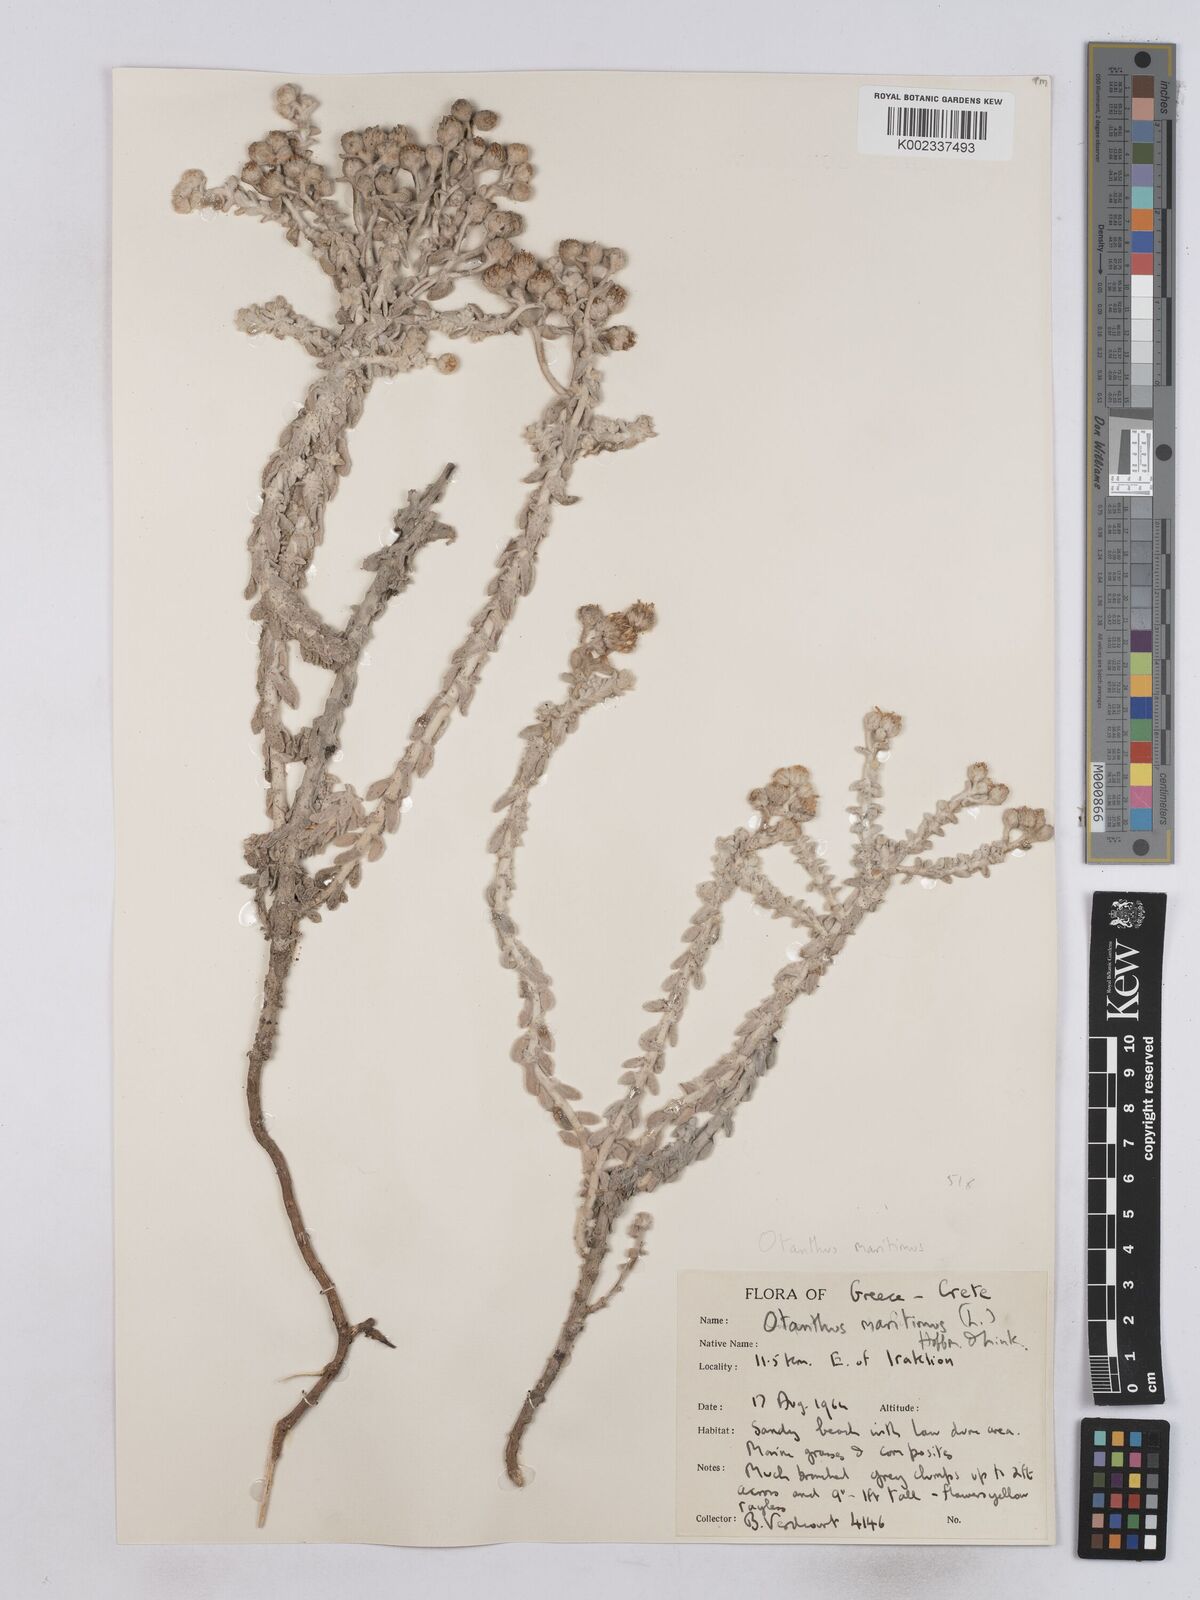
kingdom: Plantae
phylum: Tracheophyta
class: Magnoliopsida
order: Asterales
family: Asteraceae
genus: Achillea
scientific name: Achillea maritima
